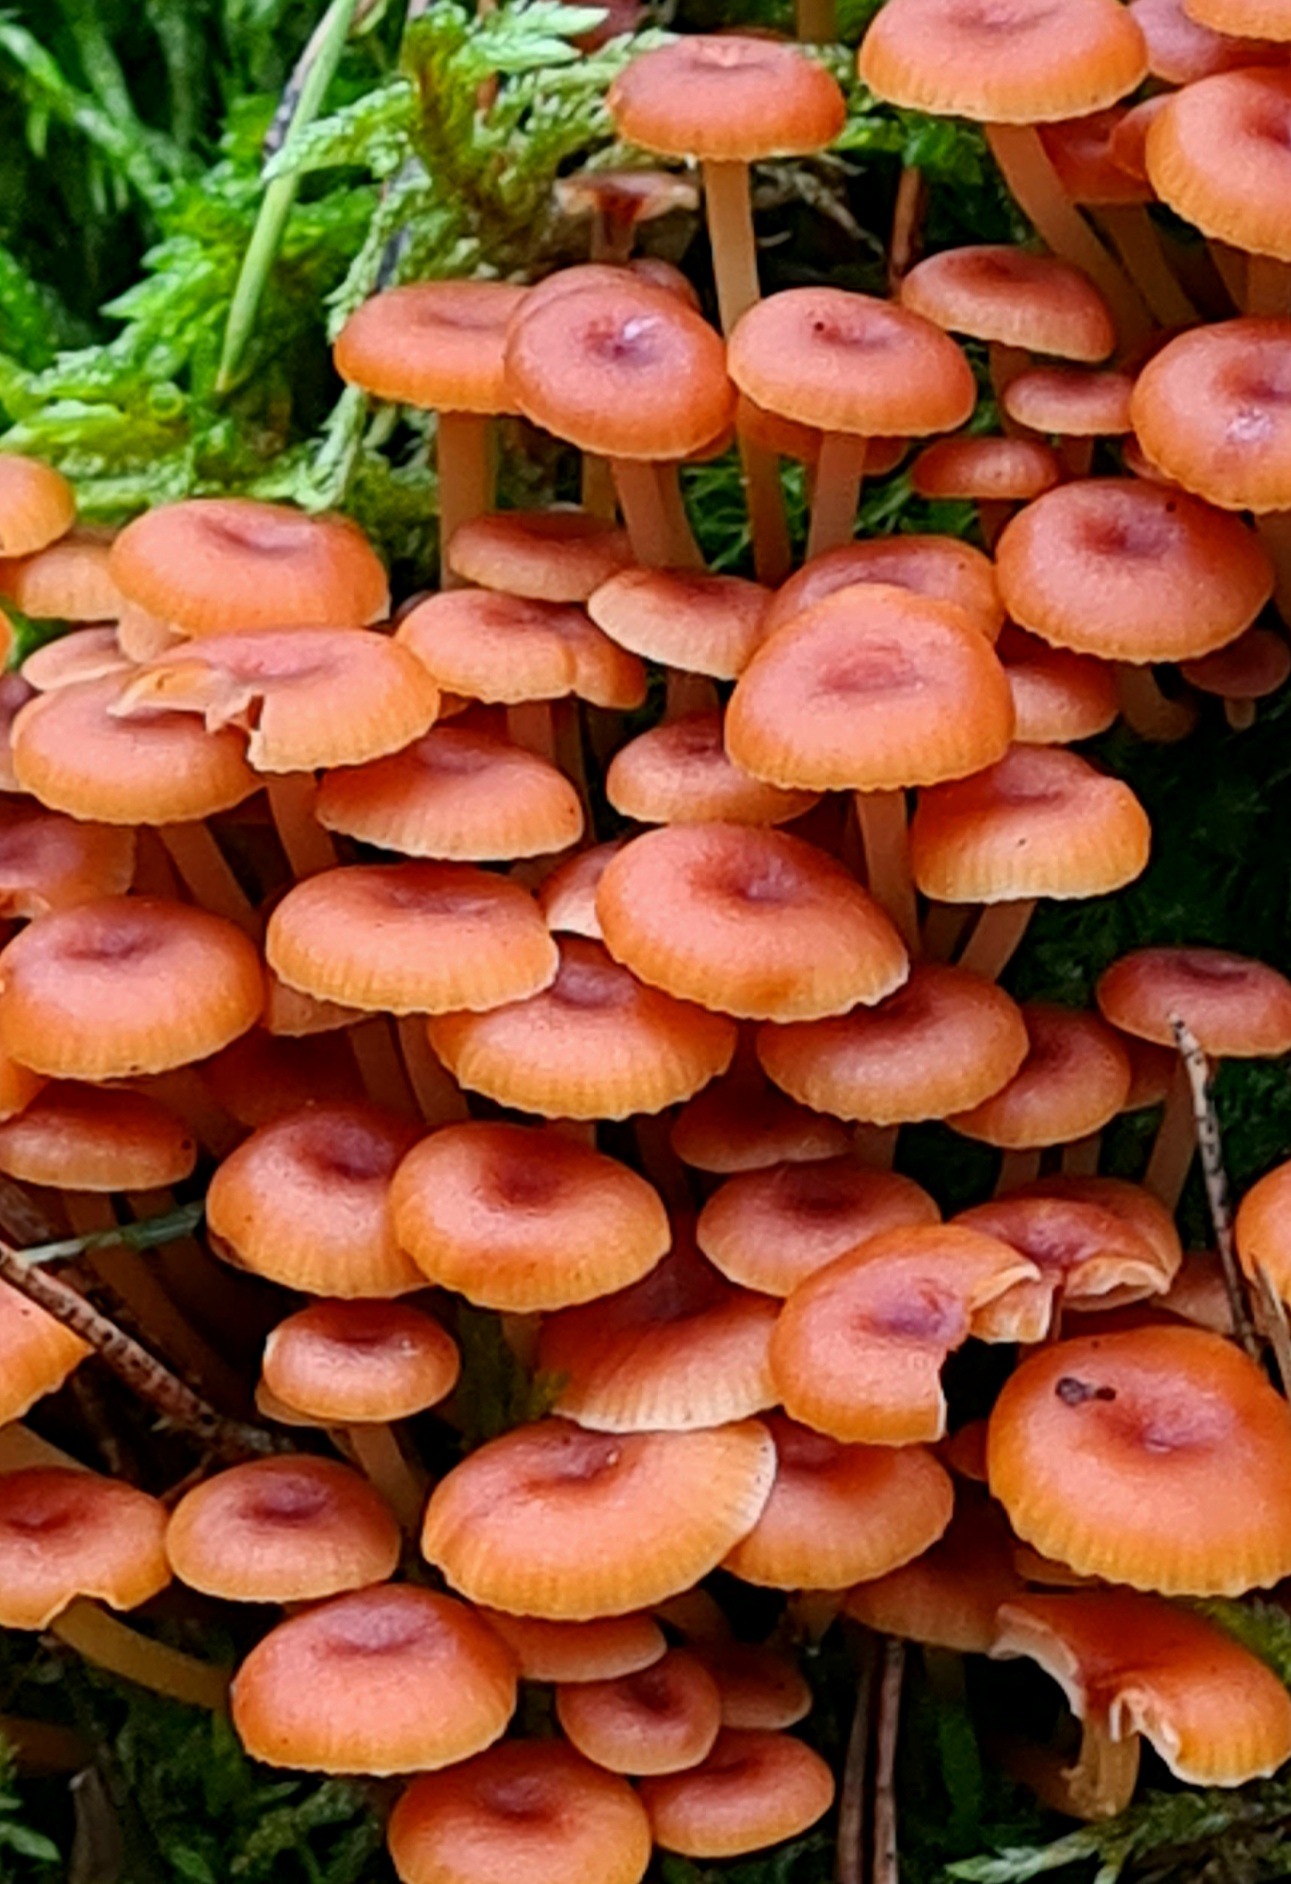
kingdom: Fungi
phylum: Basidiomycota
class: Agaricomycetes
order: Agaricales
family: Mycenaceae
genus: Xeromphalina
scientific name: Xeromphalina campanella
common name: klokke-tørhat
